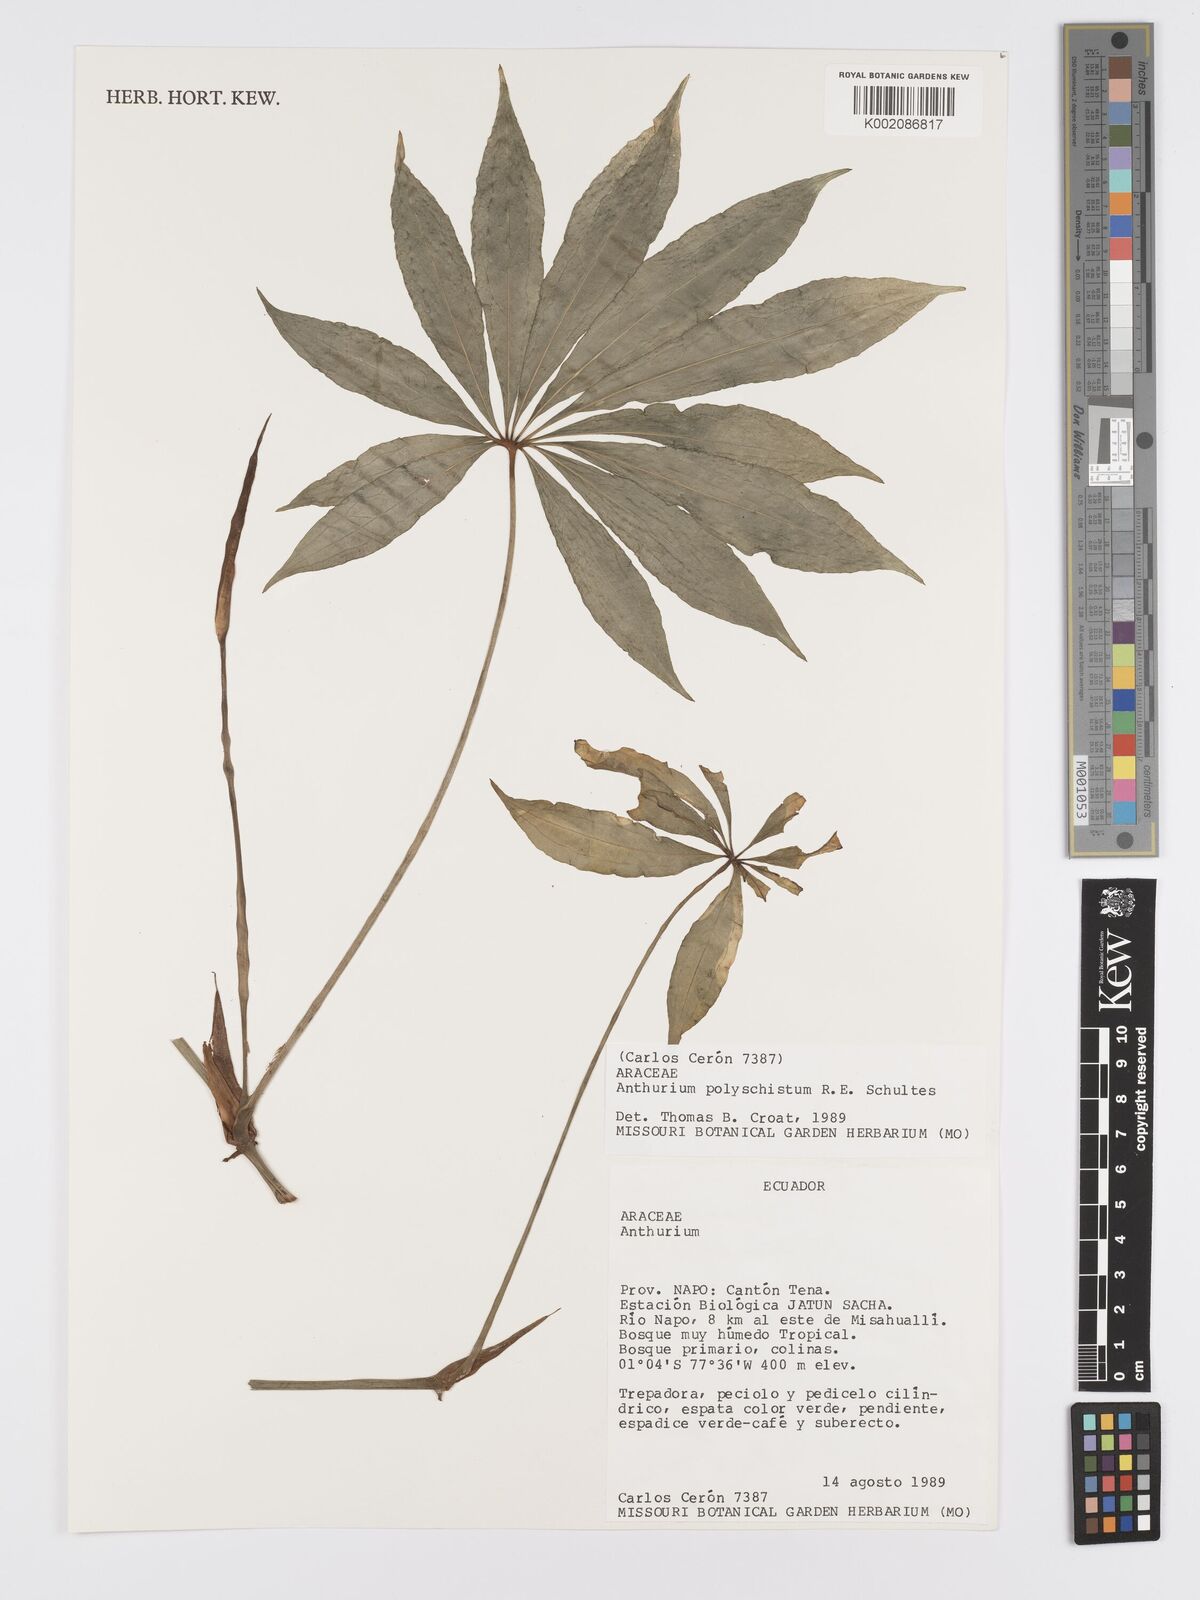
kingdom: Plantae
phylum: Tracheophyta
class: Liliopsida
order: Alismatales
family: Araceae
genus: Anthurium
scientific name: Anthurium polyschistum
